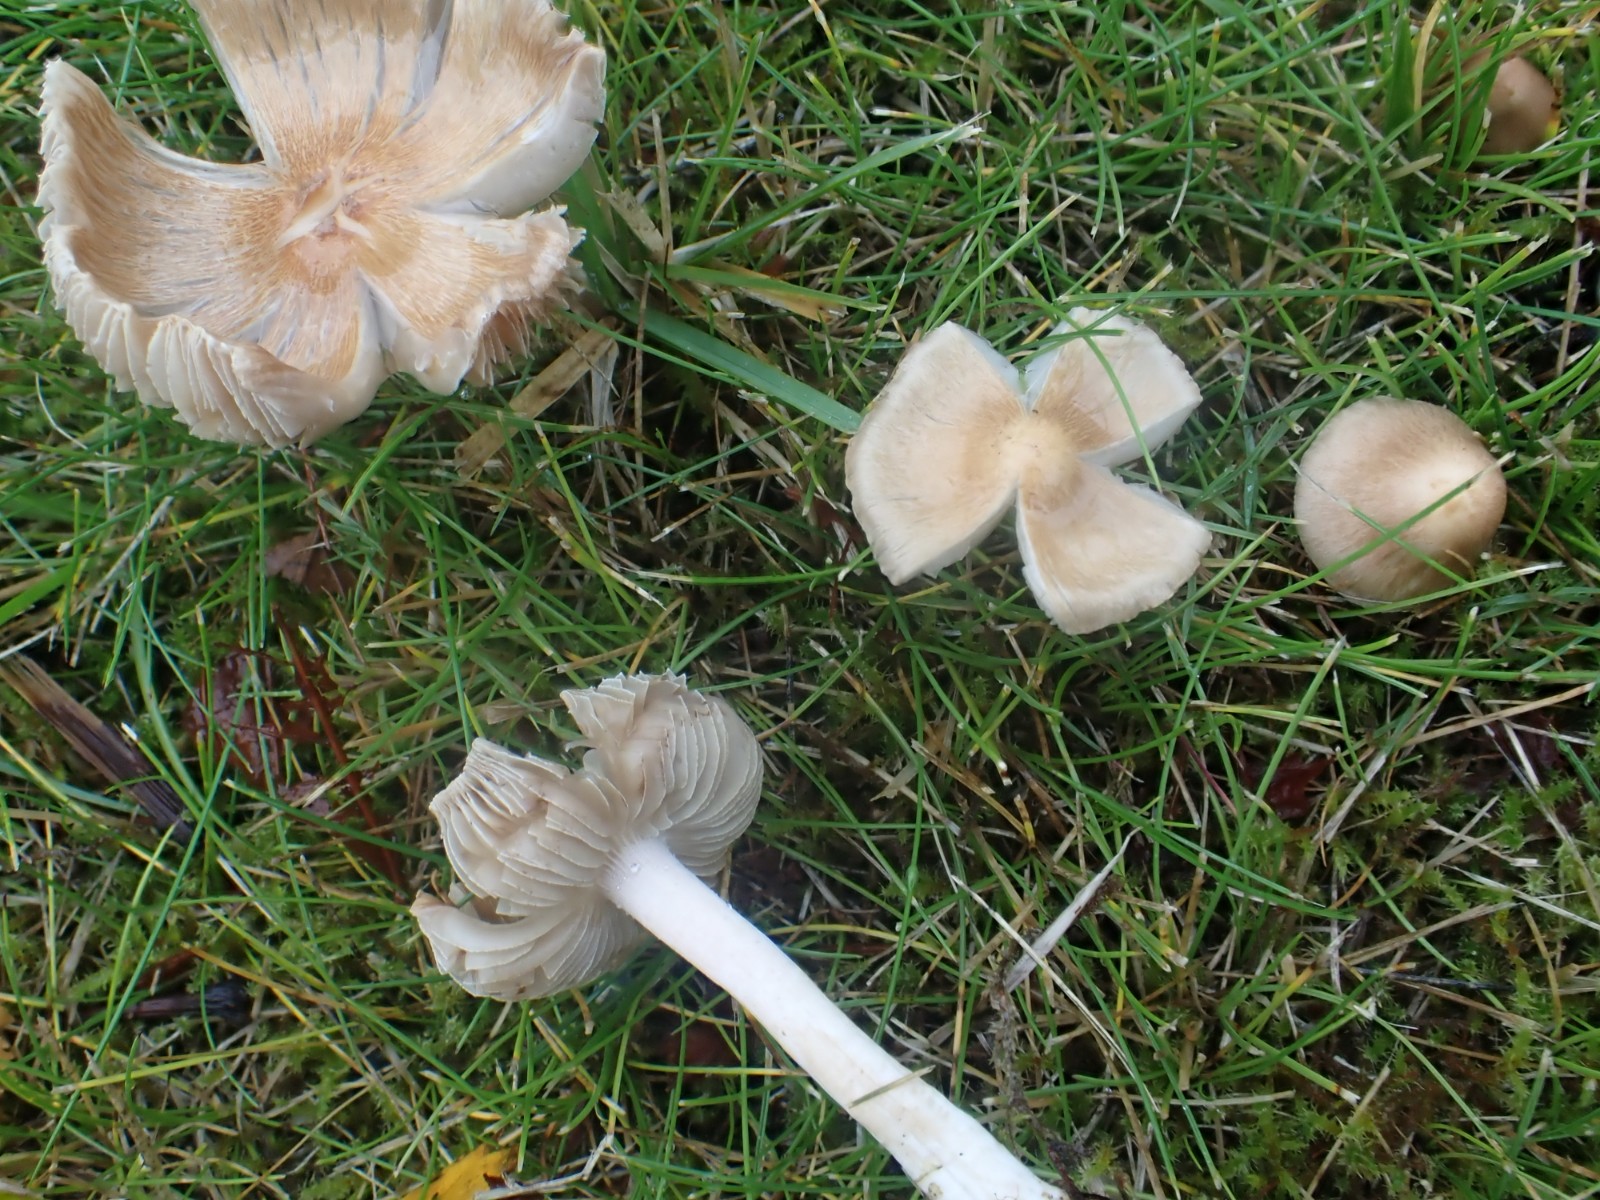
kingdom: Fungi
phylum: Basidiomycota
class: Agaricomycetes
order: Agaricales
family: Inocybaceae
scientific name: Inocybaceae
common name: trævlhatfamilien
